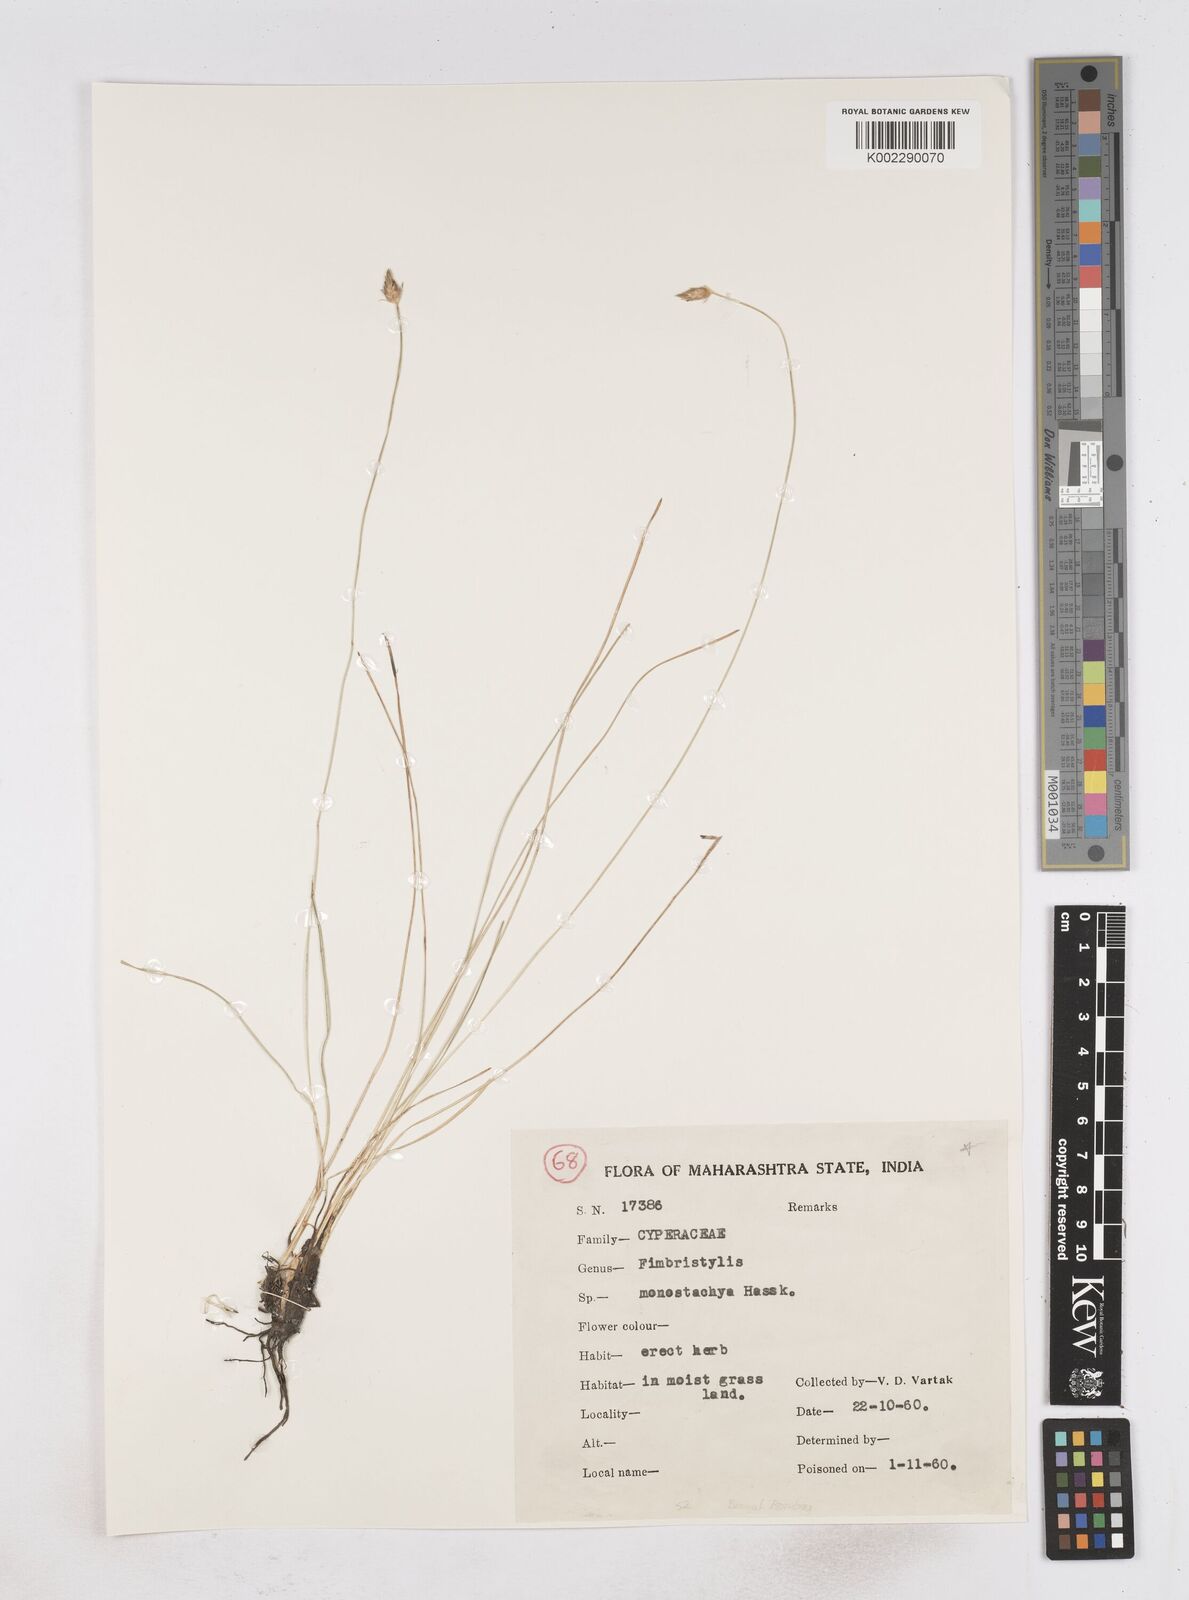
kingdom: Plantae
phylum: Tracheophyta
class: Liliopsida
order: Poales
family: Cyperaceae
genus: Abildgaardia
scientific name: Abildgaardia ovata
